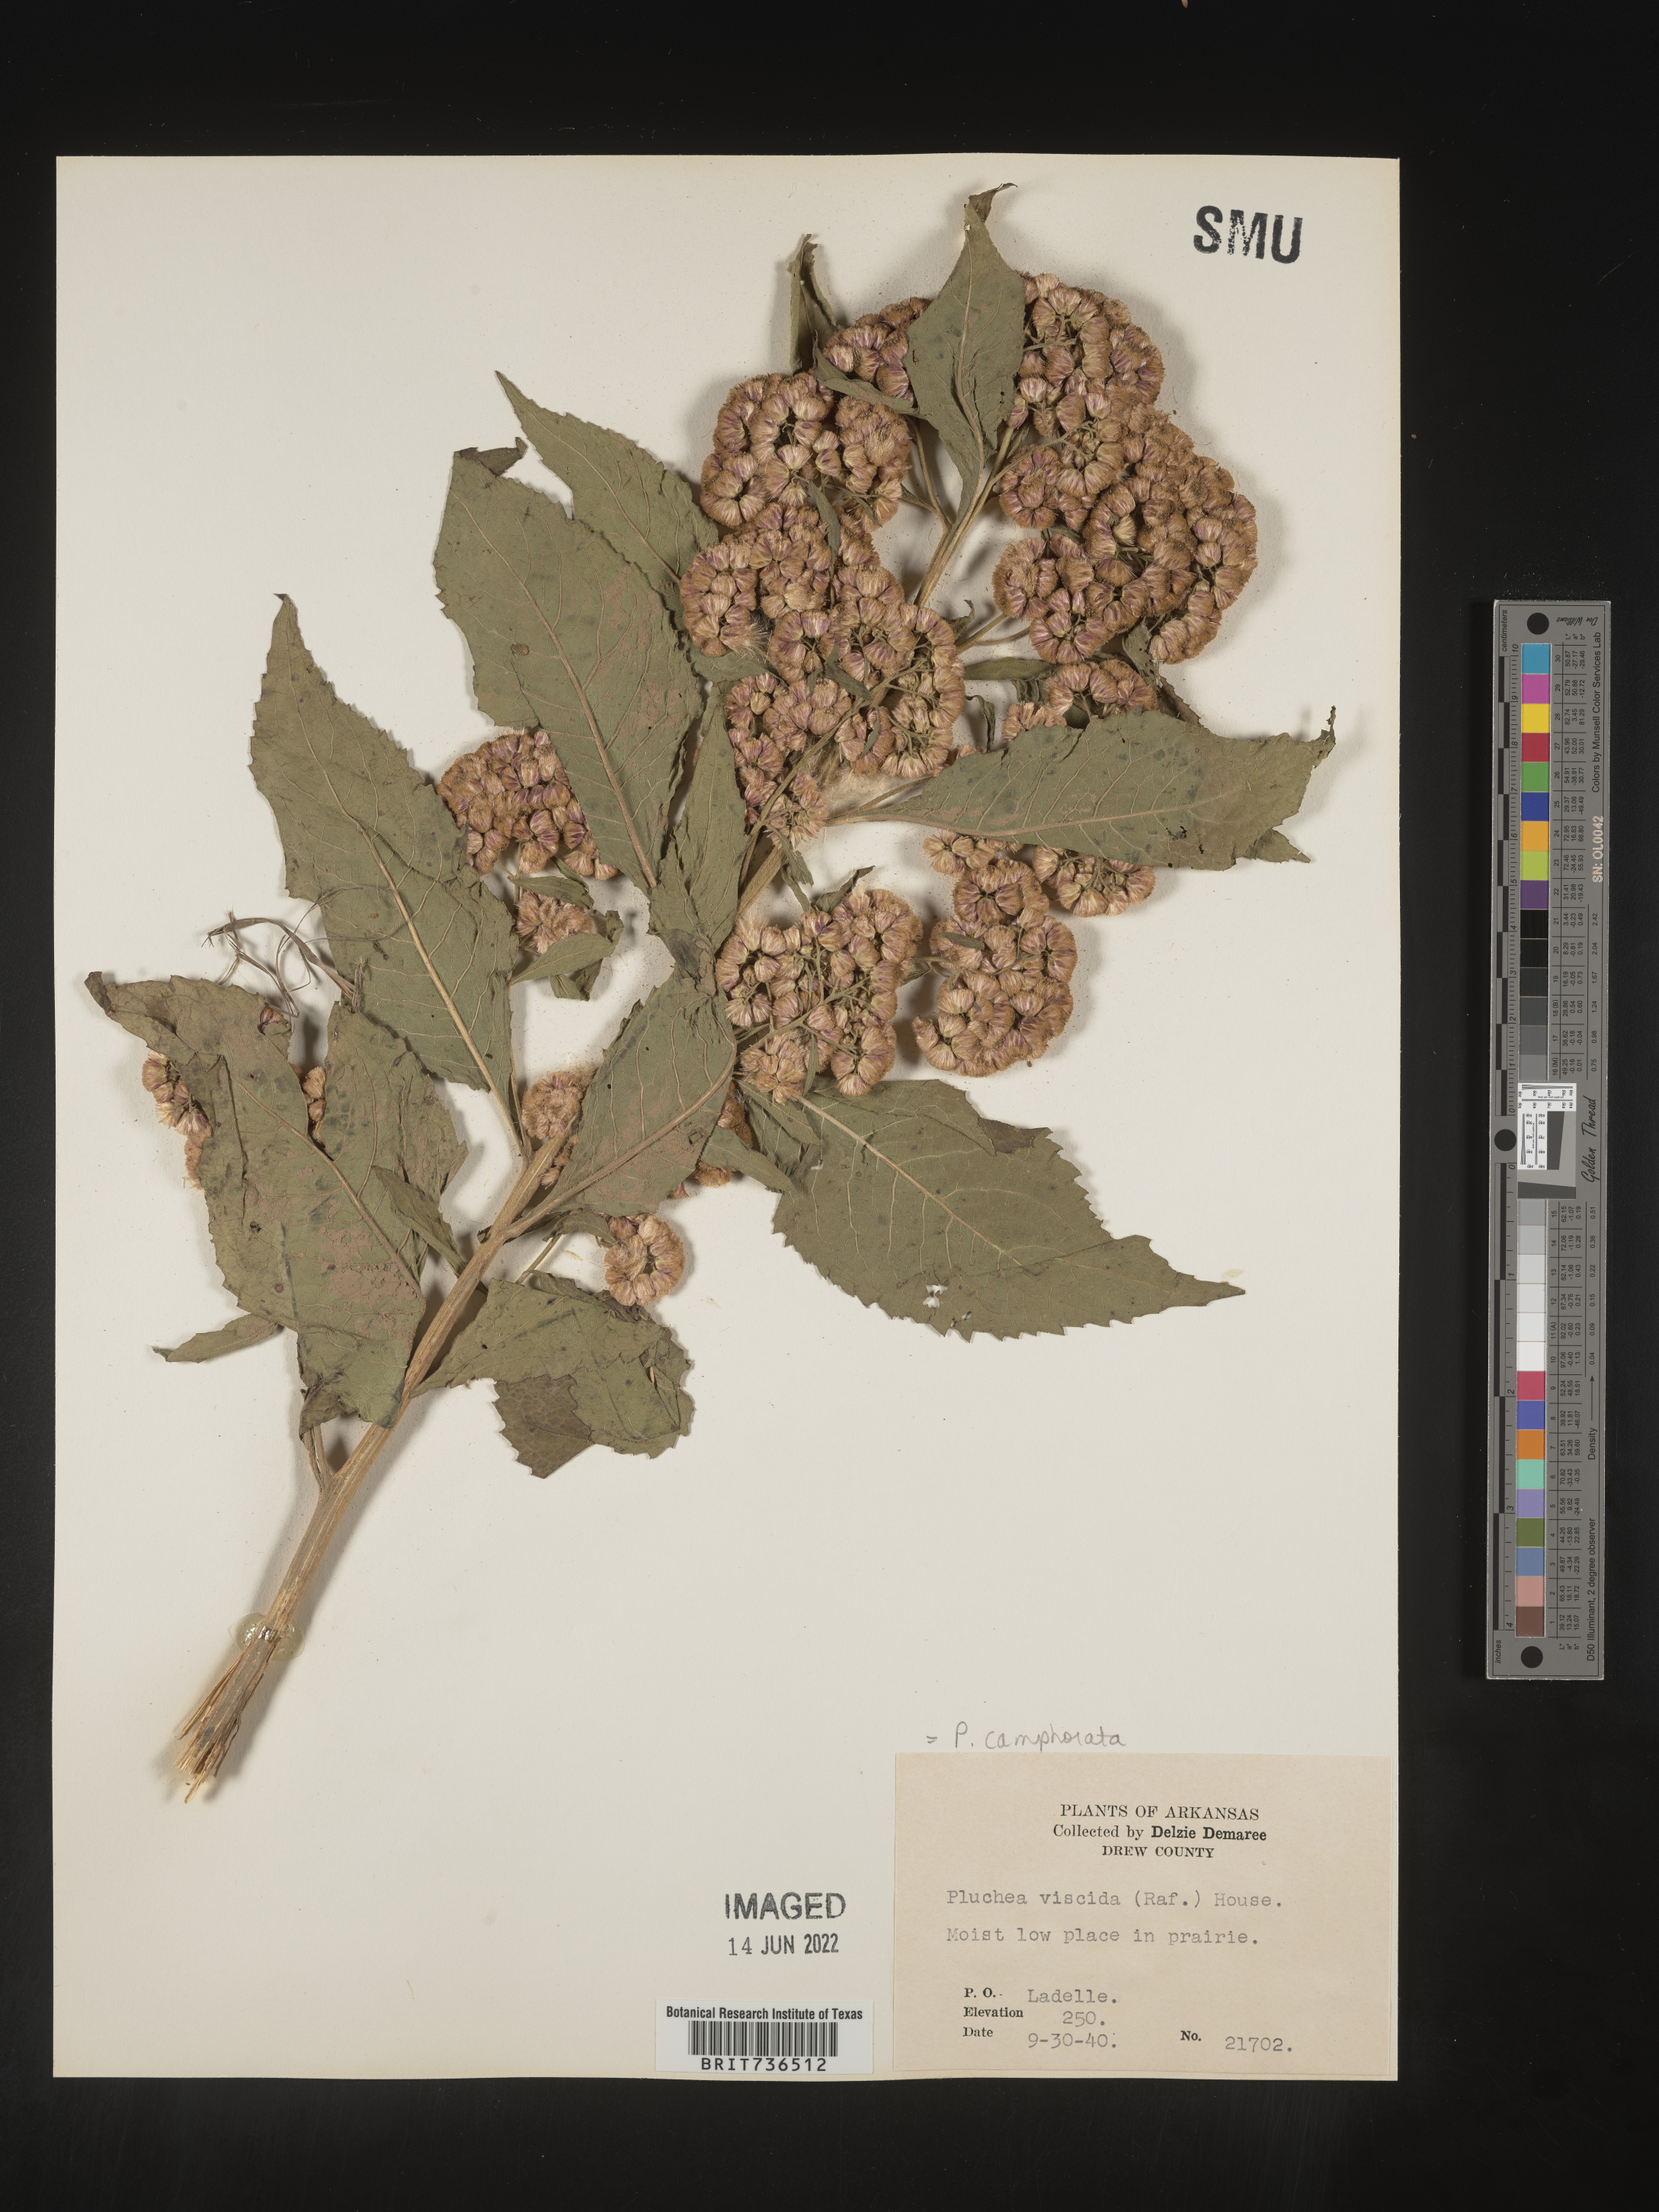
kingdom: Plantae
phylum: Tracheophyta
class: Magnoliopsida
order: Asterales
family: Asteraceae
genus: Pluchea
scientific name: Pluchea camphorata
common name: Camphor pluchea
